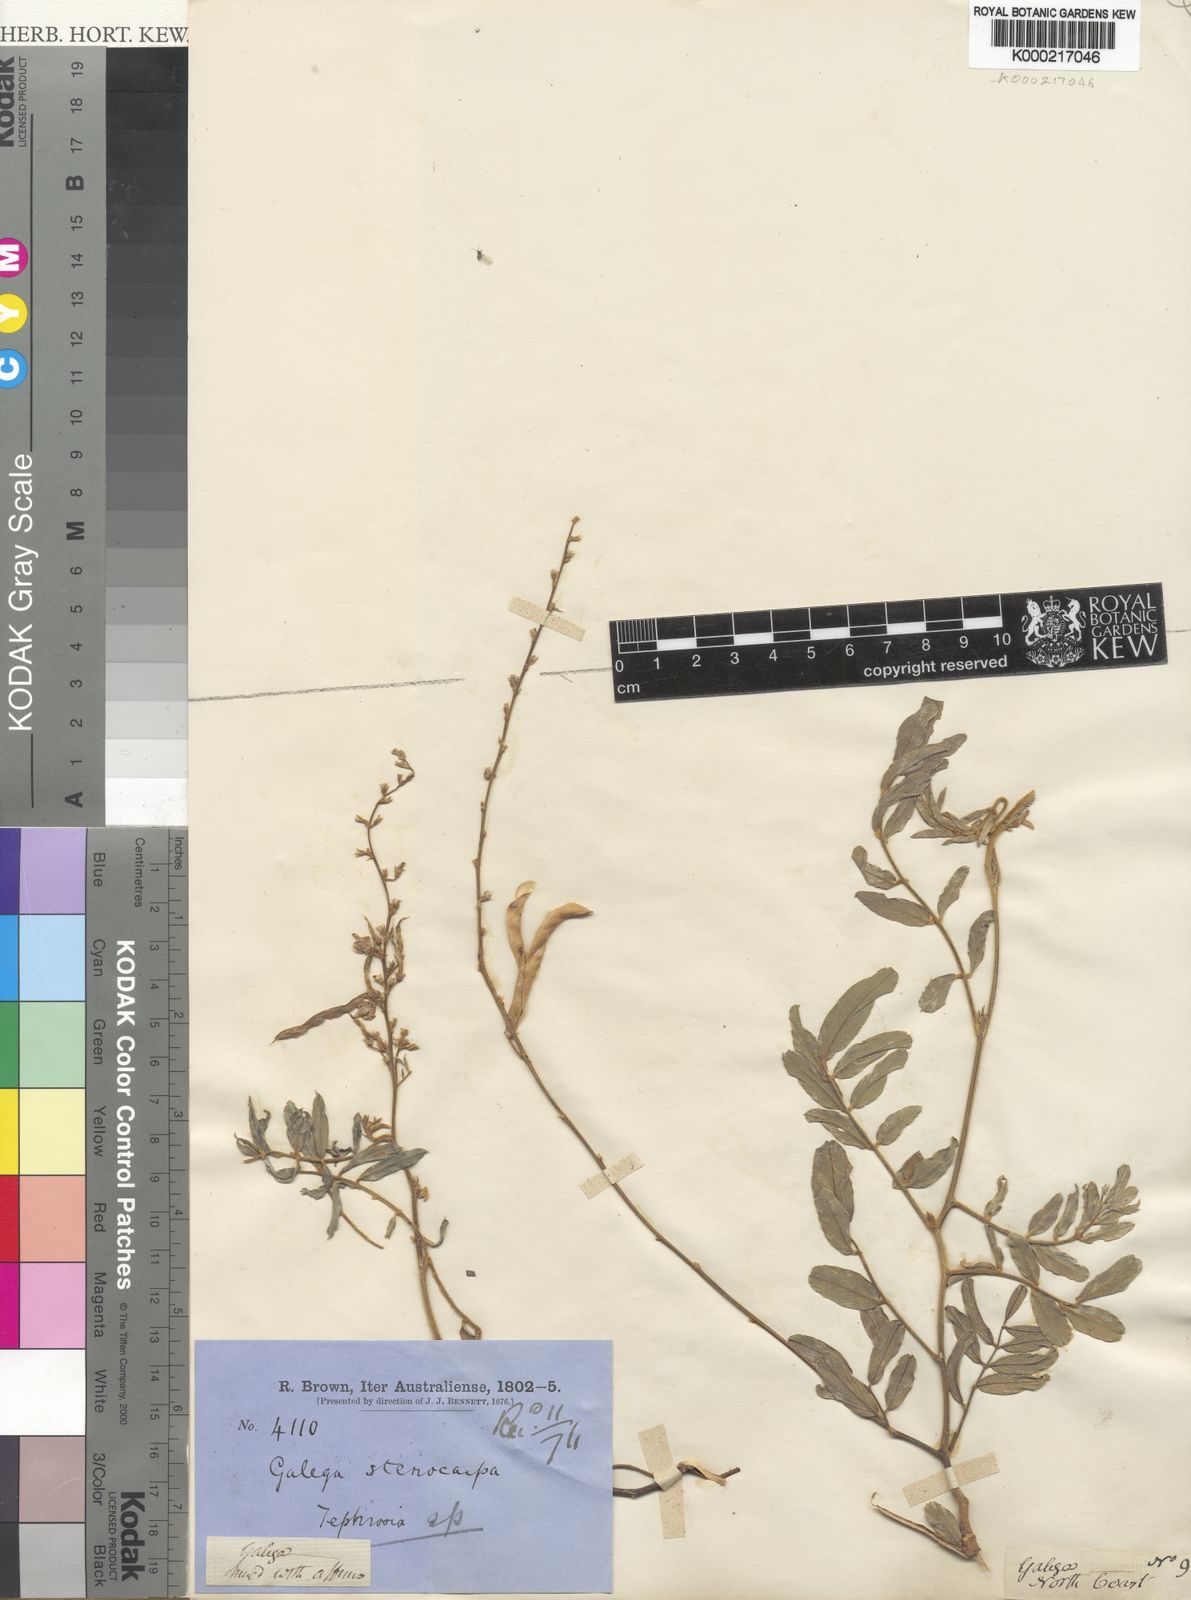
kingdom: Plantae
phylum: Tracheophyta
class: Magnoliopsida
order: Fabales
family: Fabaceae
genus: Tephrosia
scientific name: Tephrosia
